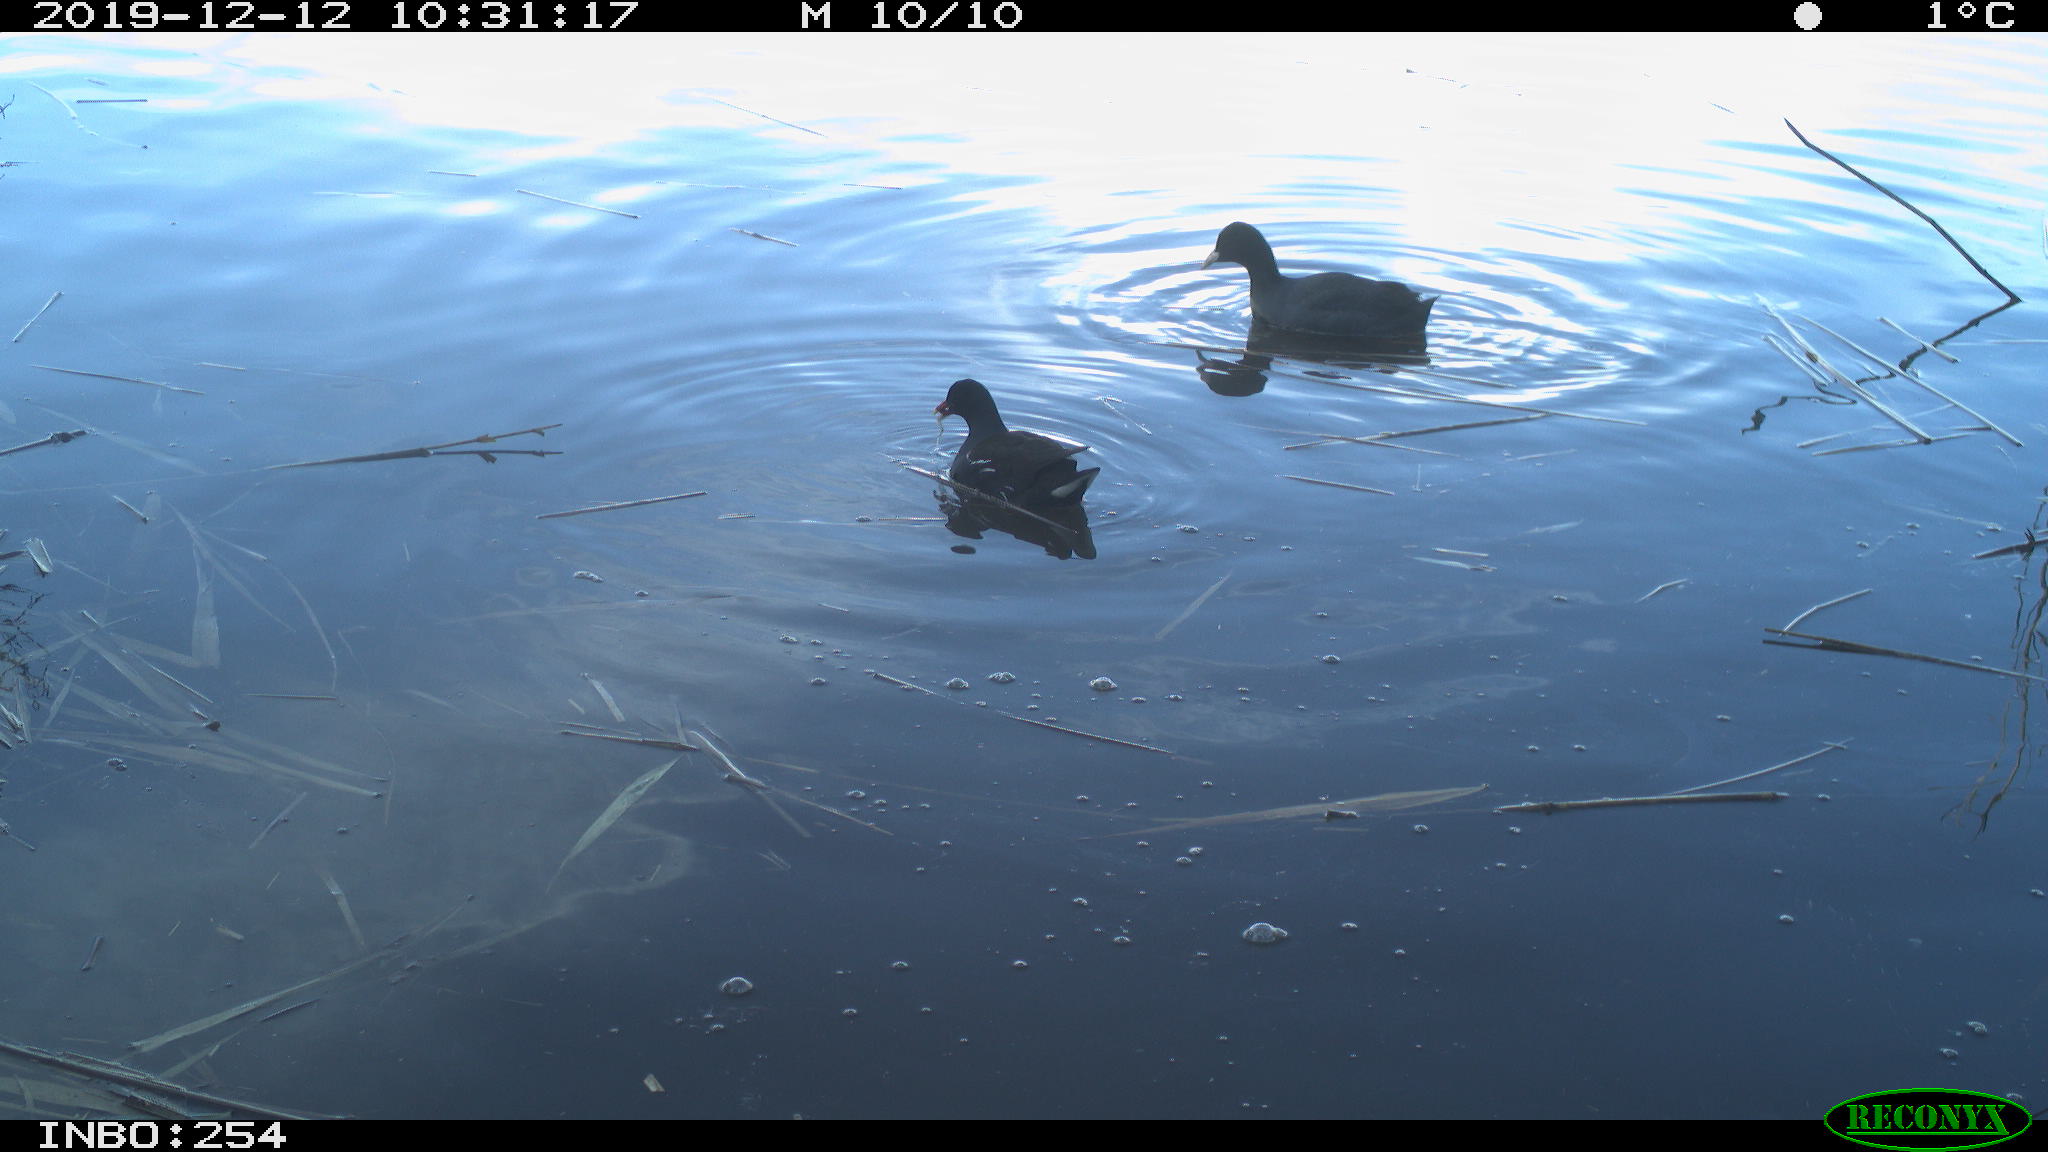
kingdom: Animalia
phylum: Chordata
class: Aves
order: Gruiformes
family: Rallidae
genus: Gallinula
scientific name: Gallinula chloropus
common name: Common moorhen
